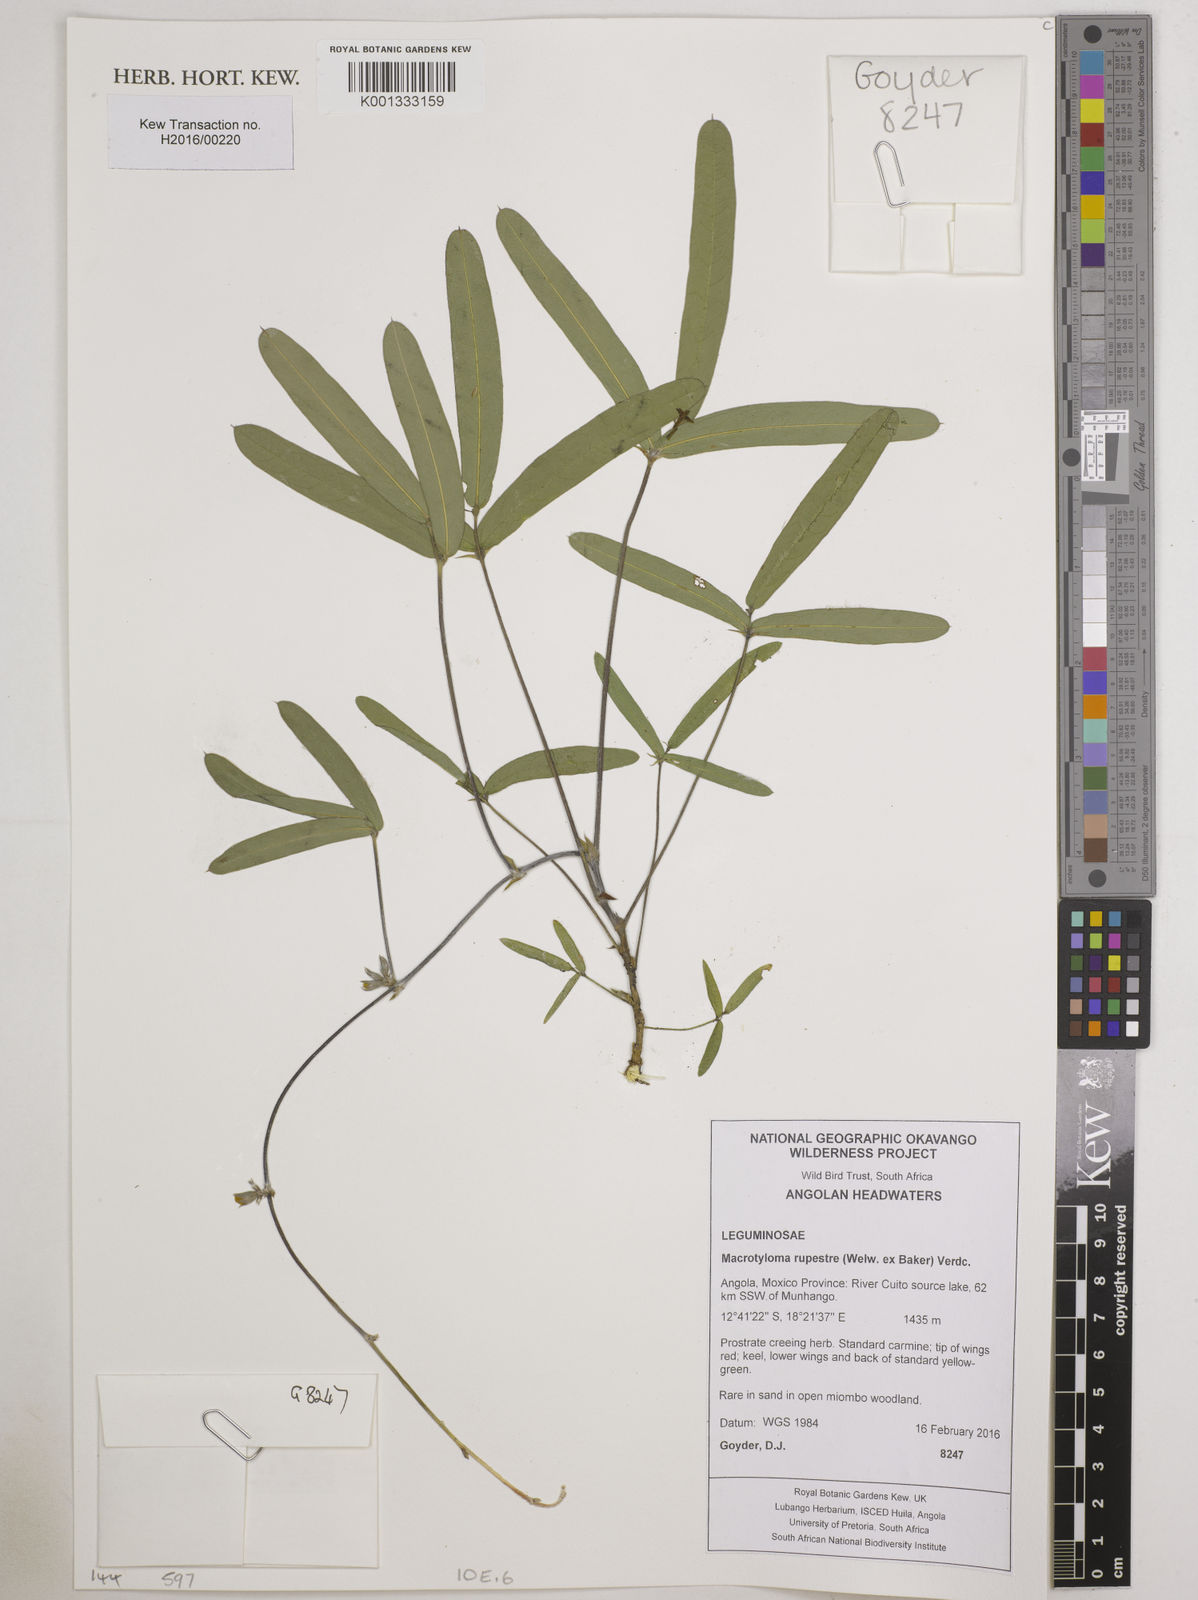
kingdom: Plantae
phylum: Tracheophyta
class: Magnoliopsida
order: Fabales
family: Fabaceae
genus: Macrotyloma
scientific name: Macrotyloma rupestre
